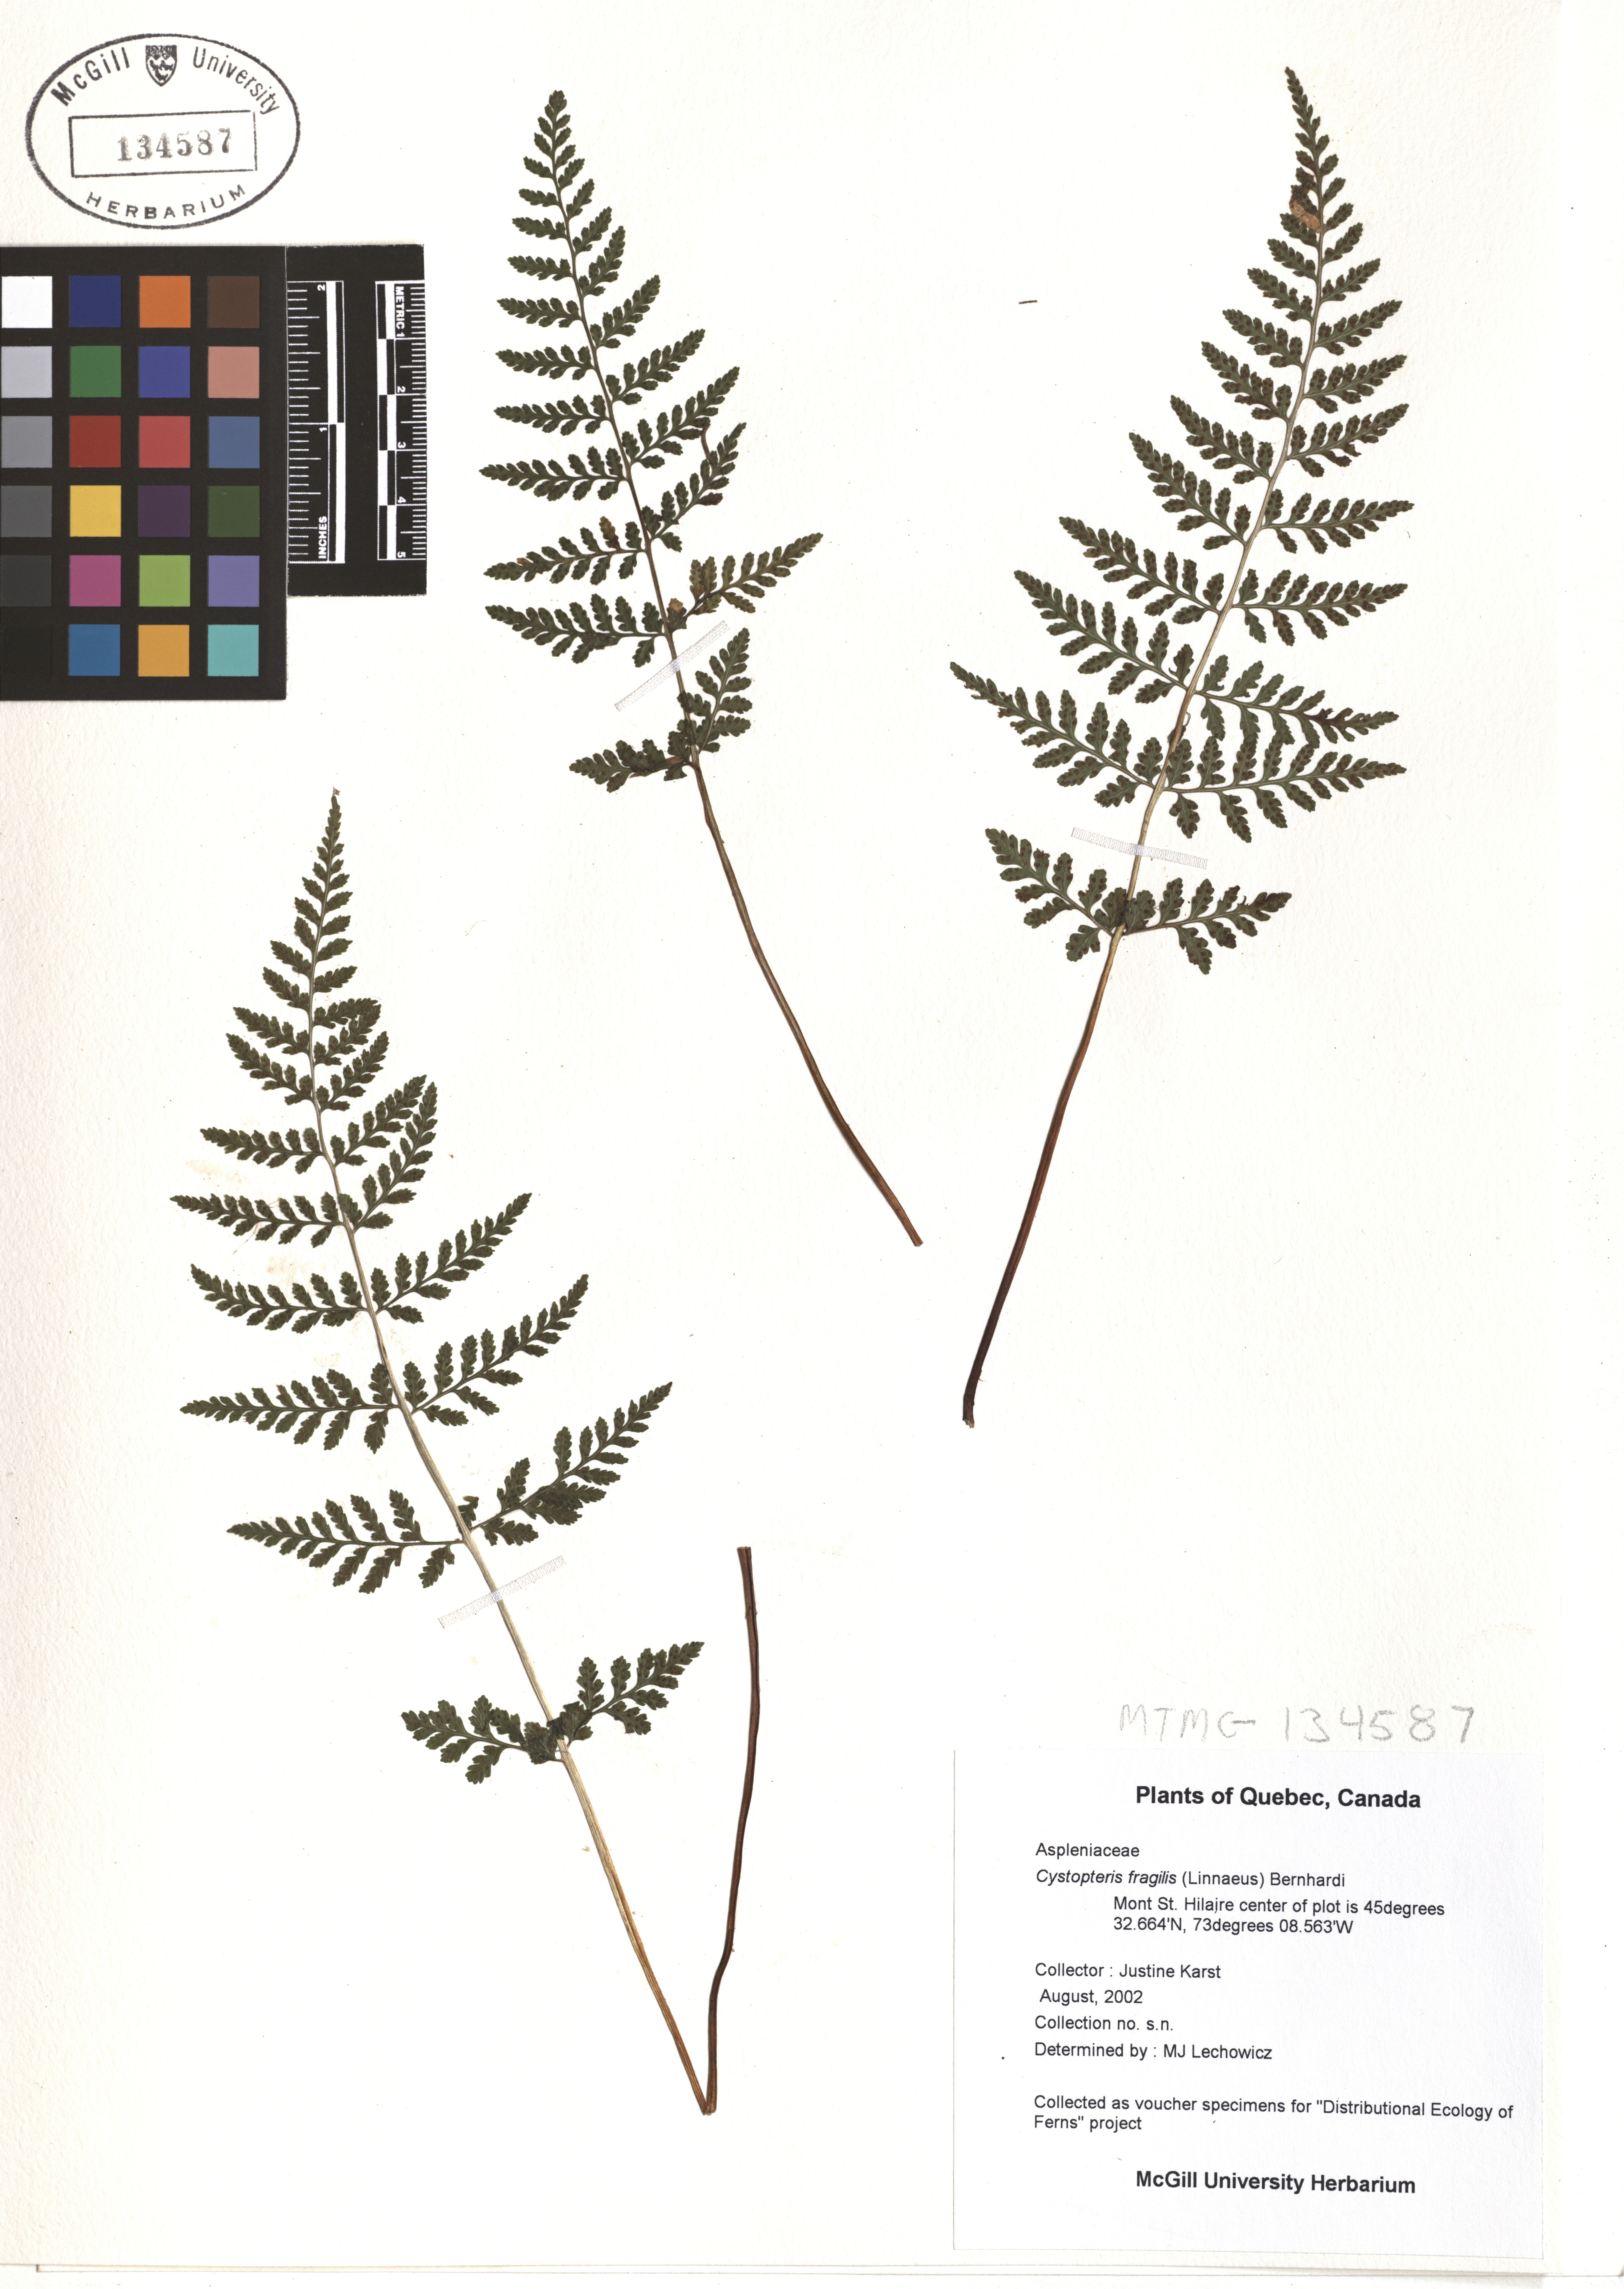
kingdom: Plantae
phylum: Tracheophyta
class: Polypodiopsida
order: Polypodiales
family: Cystopteridaceae
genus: Cystopteris
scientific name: Cystopteris fragilis
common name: Brittle bladder fern
